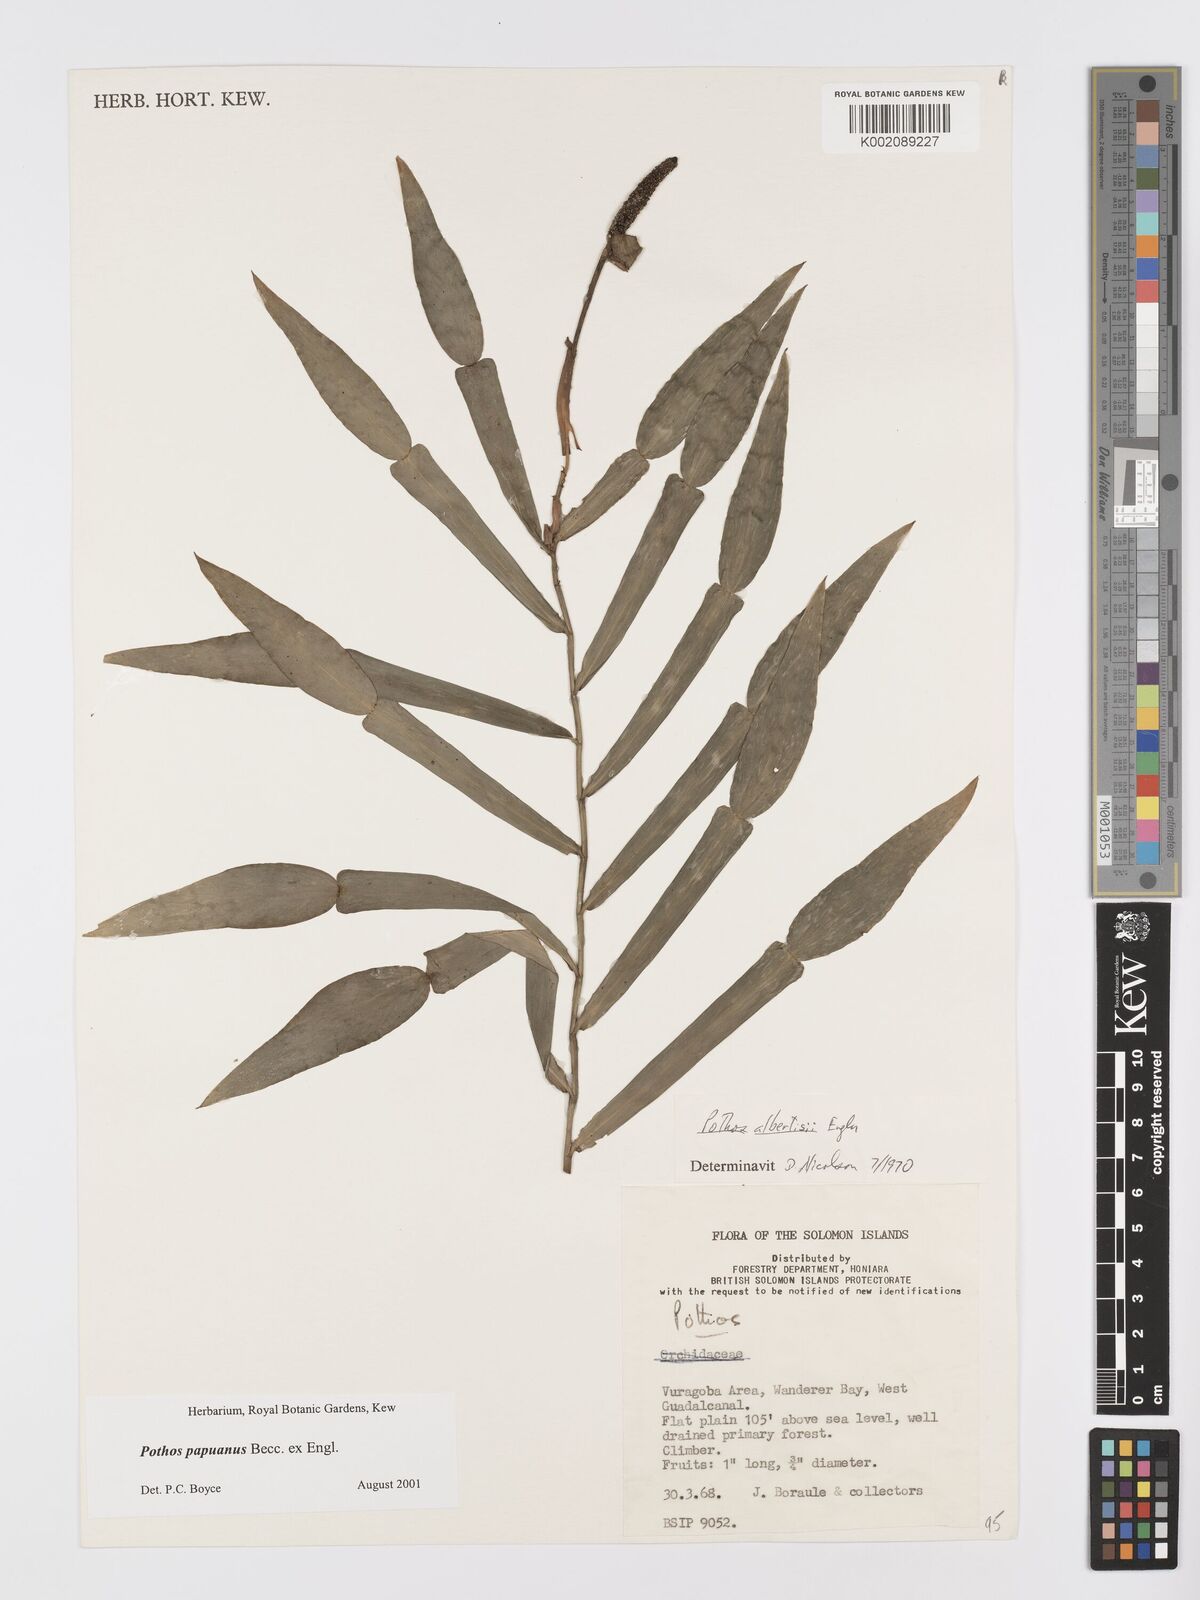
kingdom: Plantae
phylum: Tracheophyta
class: Liliopsida
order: Alismatales
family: Araceae
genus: Pothos
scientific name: Pothos papuanus
